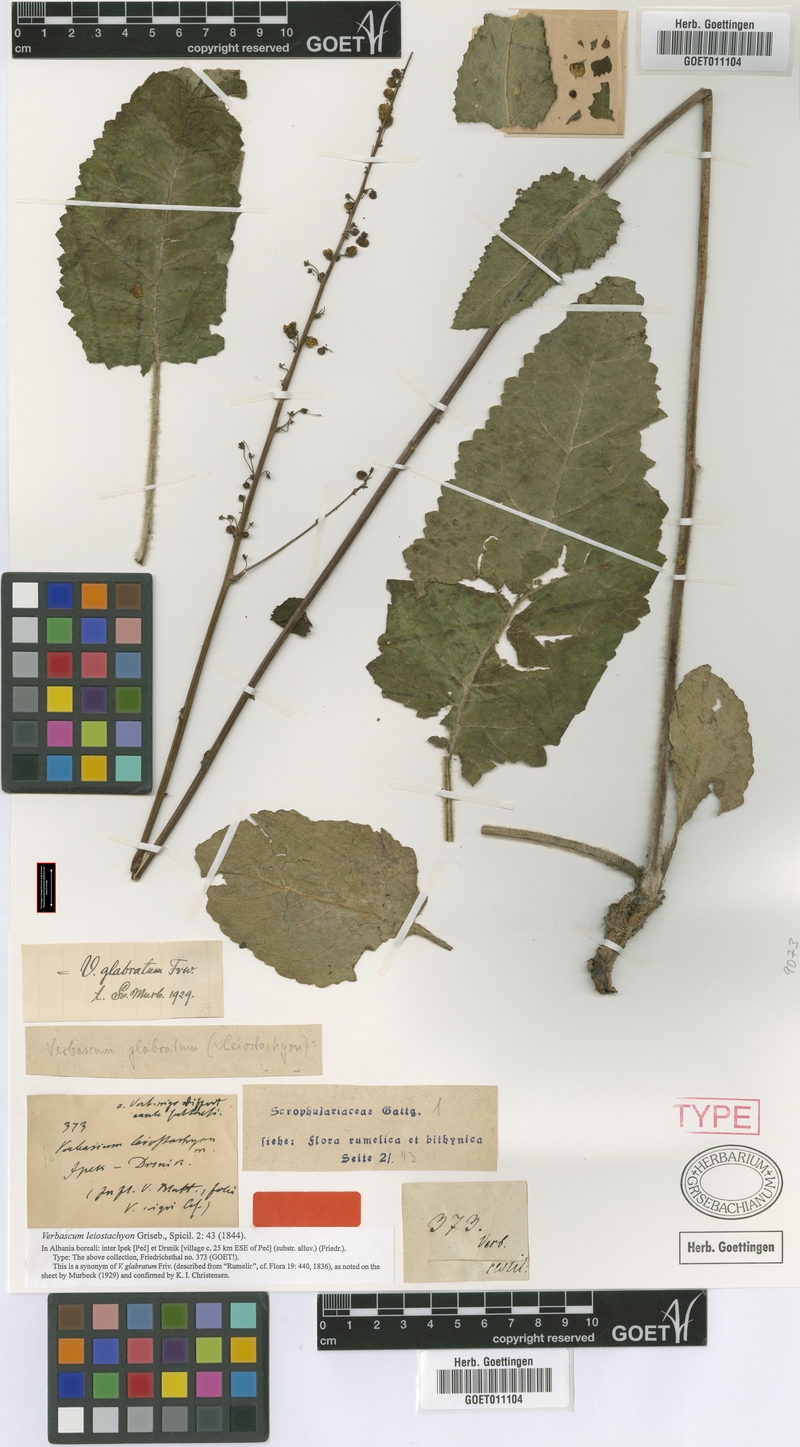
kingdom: Plantae
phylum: Tracheophyta
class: Magnoliopsida
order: Lamiales
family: Scrophulariaceae
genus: Verbascum
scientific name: Verbascum glabratum
